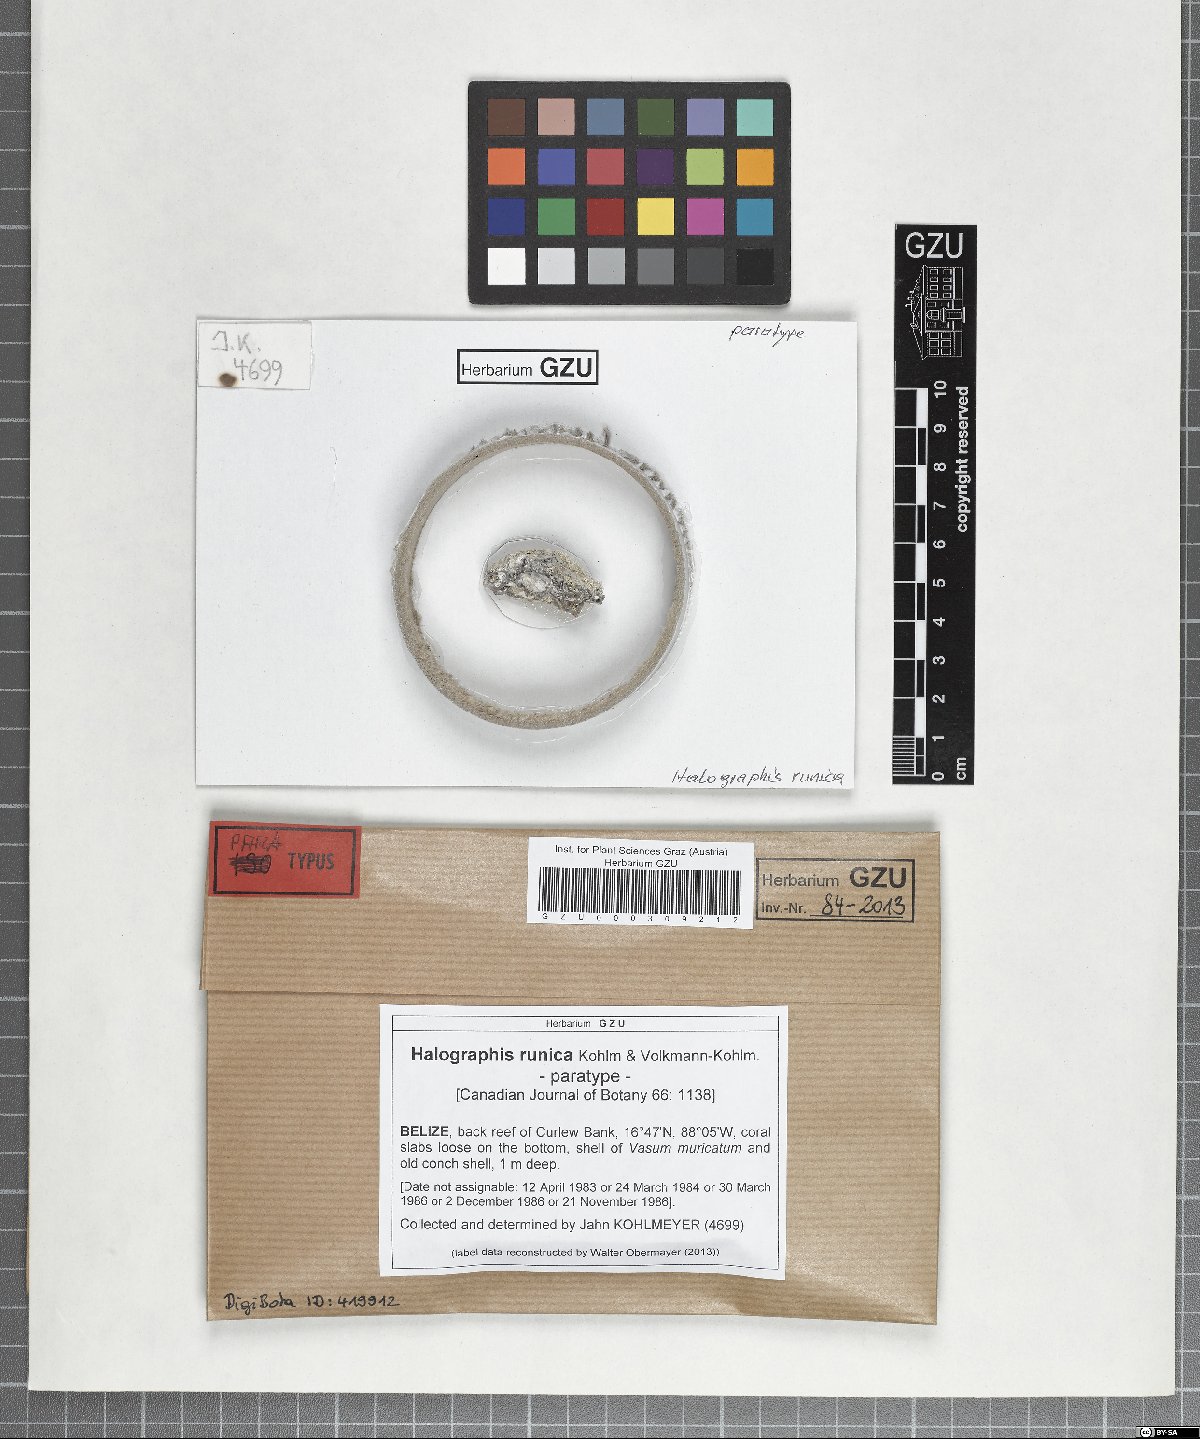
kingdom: Fungi
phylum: Ascomycota
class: Arthoniomycetes
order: Arthoniales
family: Roccellaceae
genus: Halographis
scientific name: Halographis runica
